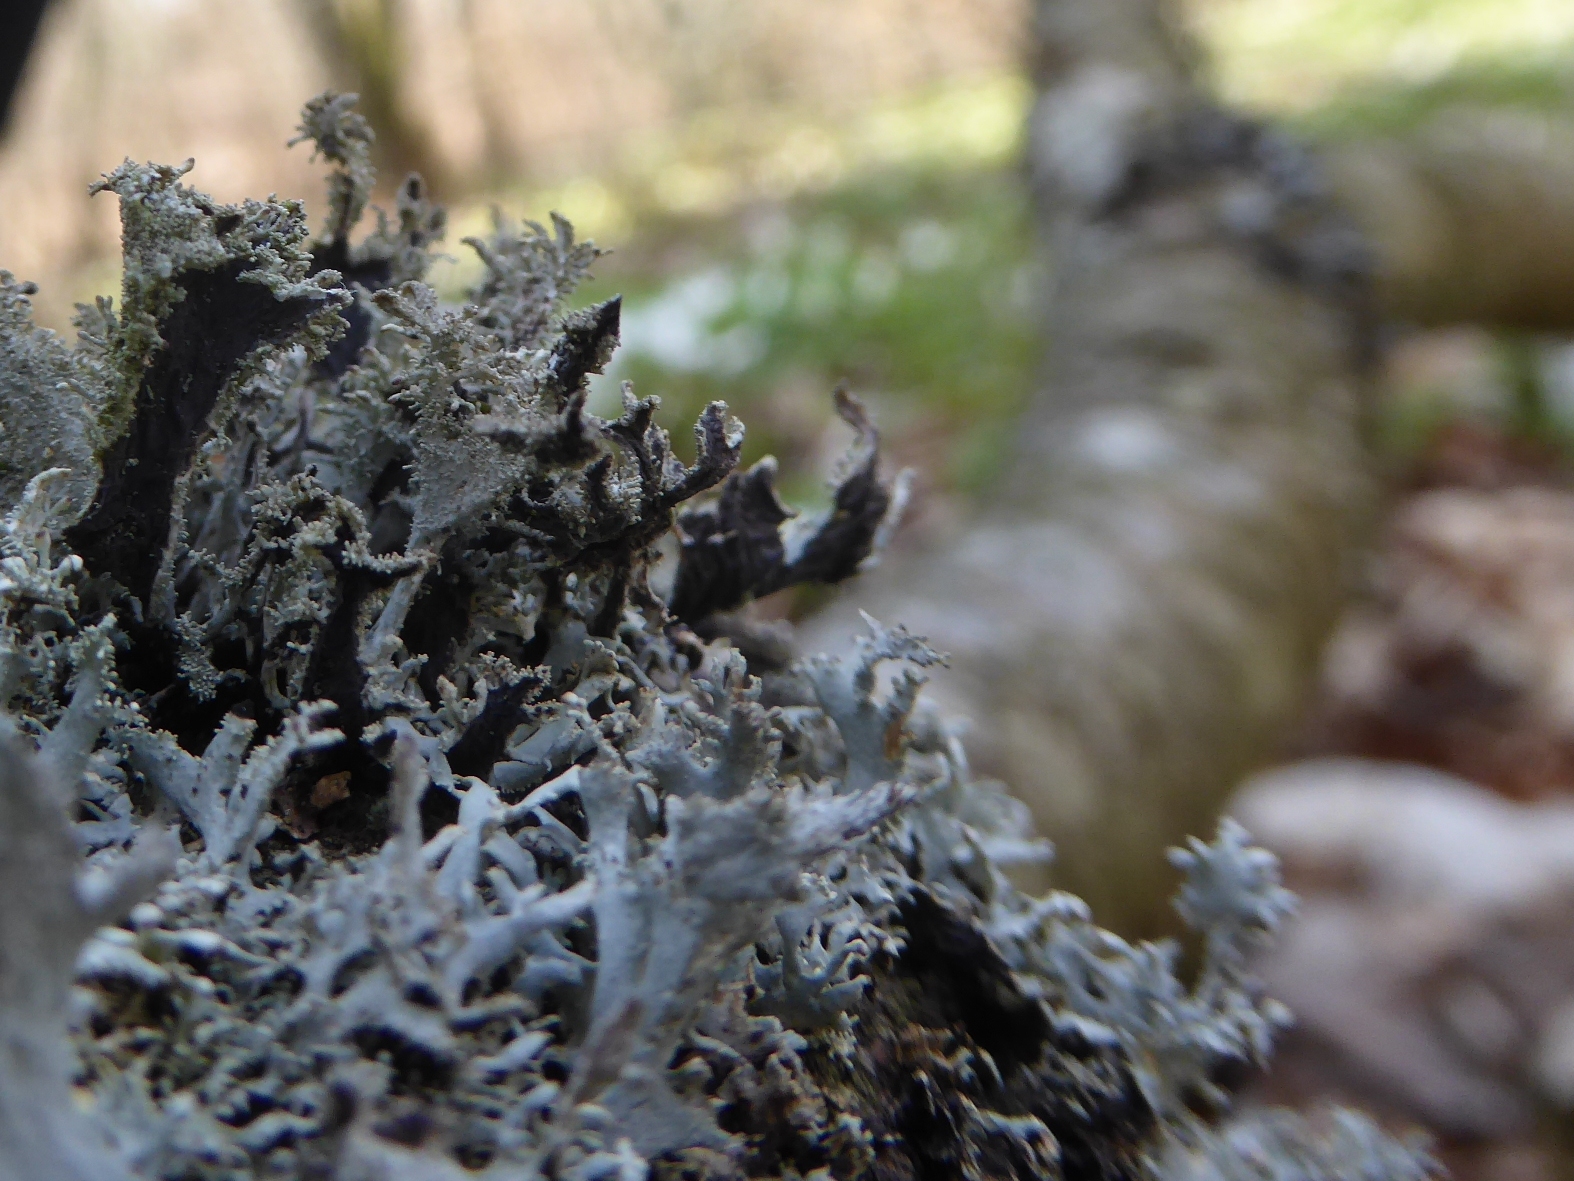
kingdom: Fungi
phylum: Ascomycota
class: Lecanoromycetes
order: Lecanorales
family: Parmeliaceae
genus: Pseudevernia
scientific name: Pseudevernia furfuracea
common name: grå fyrrelav
